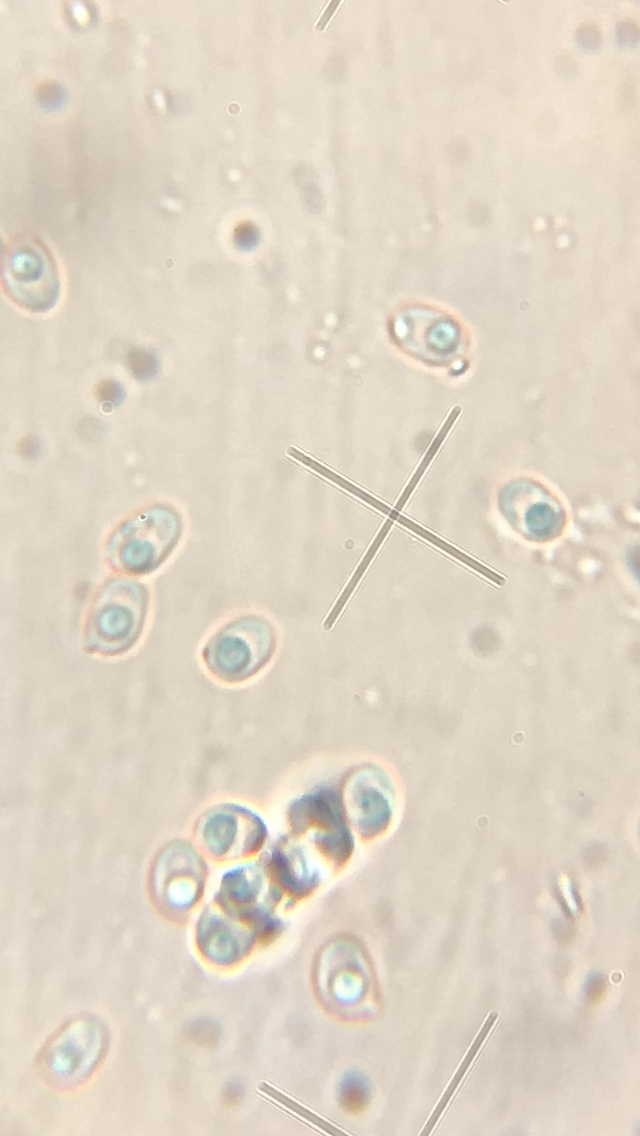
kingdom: Fungi
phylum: Basidiomycota
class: Agaricomycetes
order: Hymenochaetales
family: Schizoporaceae
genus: Xylodon
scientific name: Xylodon subtropicus
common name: labyrint-tandsvamp
